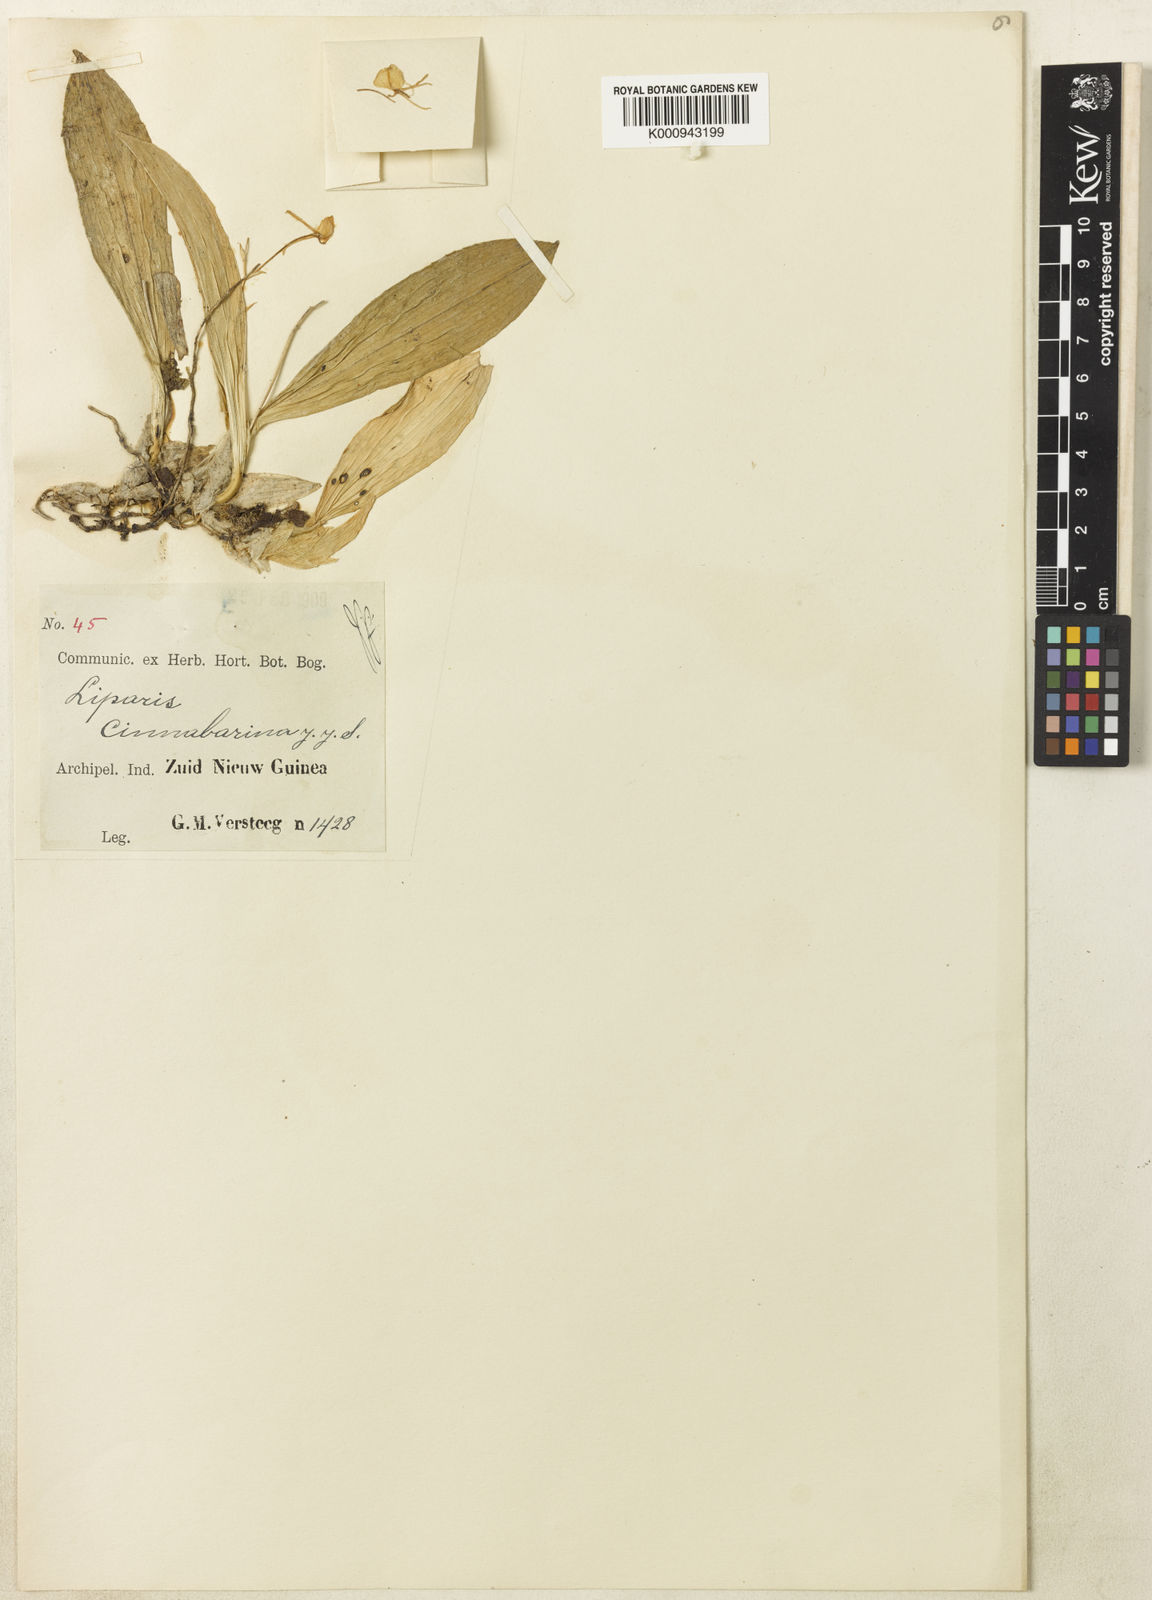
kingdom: Plantae
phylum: Tracheophyta
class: Liliopsida
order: Asparagales
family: Orchidaceae
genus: Liparis
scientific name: Liparis cinnabarina
